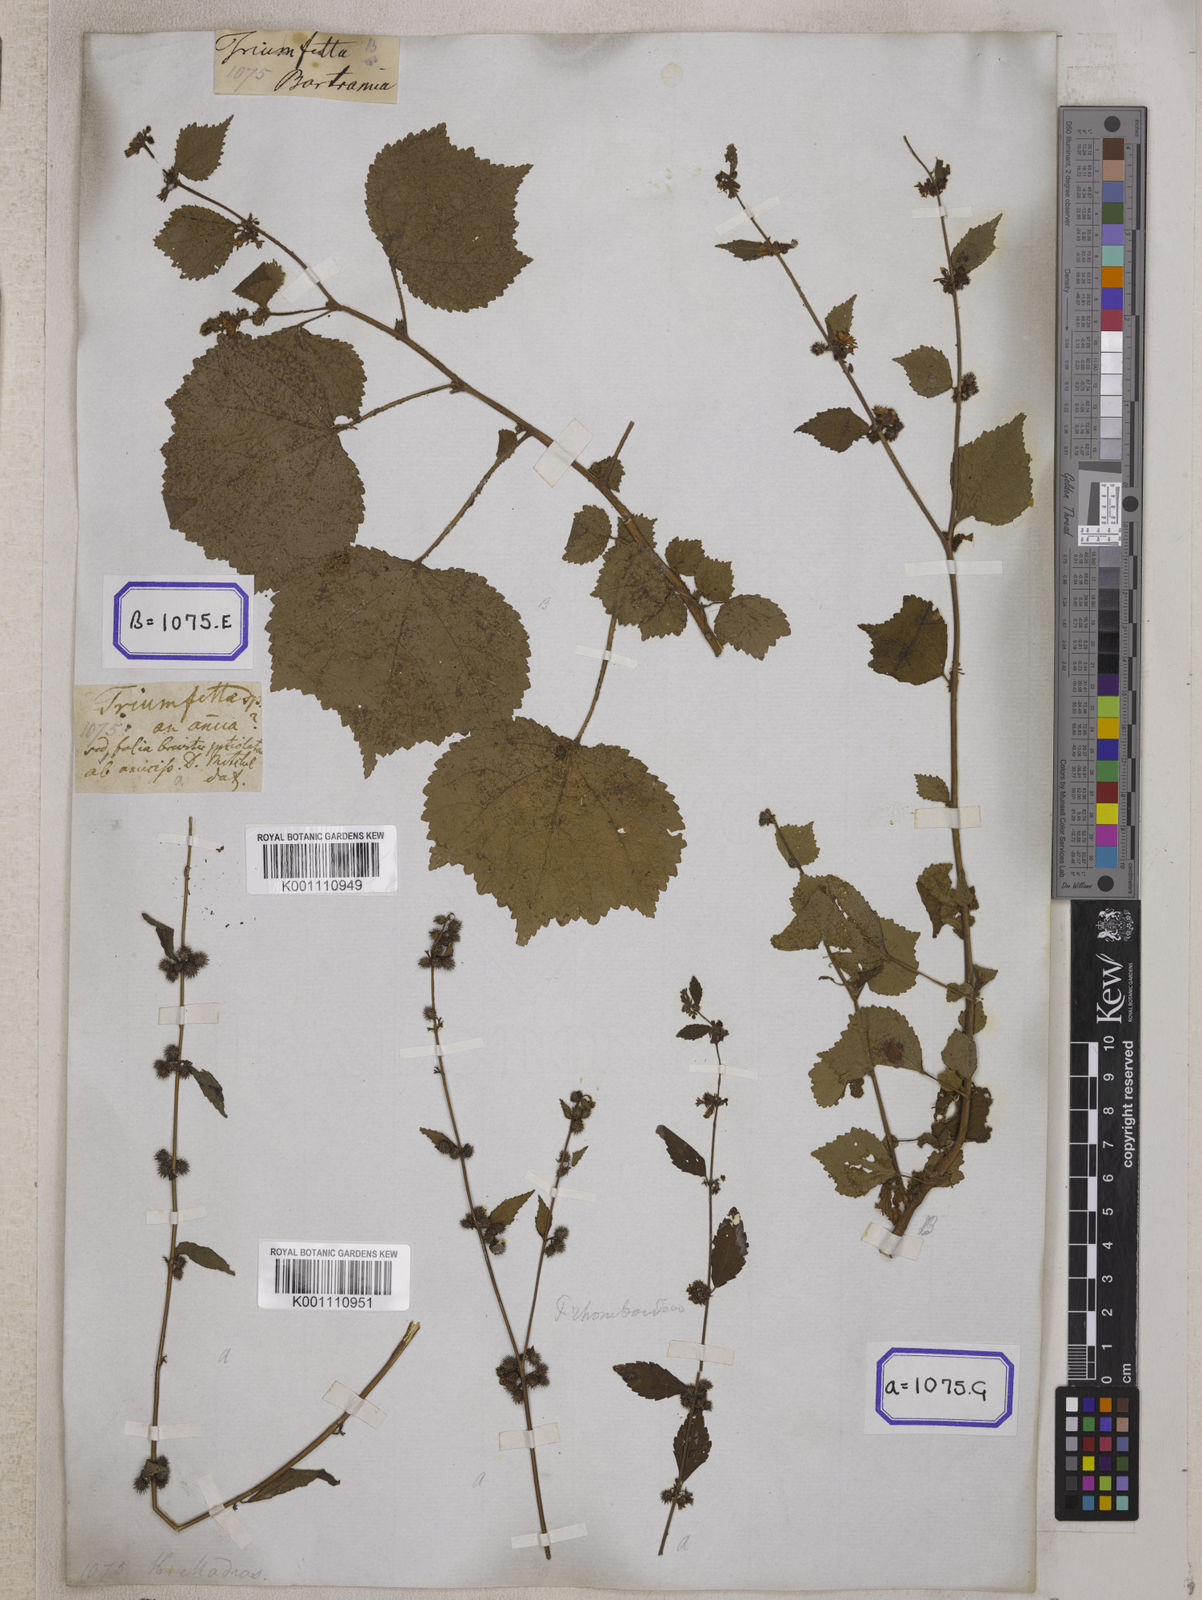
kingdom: Plantae
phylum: Tracheophyta
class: Magnoliopsida
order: Malvales
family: Malvaceae
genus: Triumfetta
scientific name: Triumfetta rhomboidea
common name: Diamond burbark
